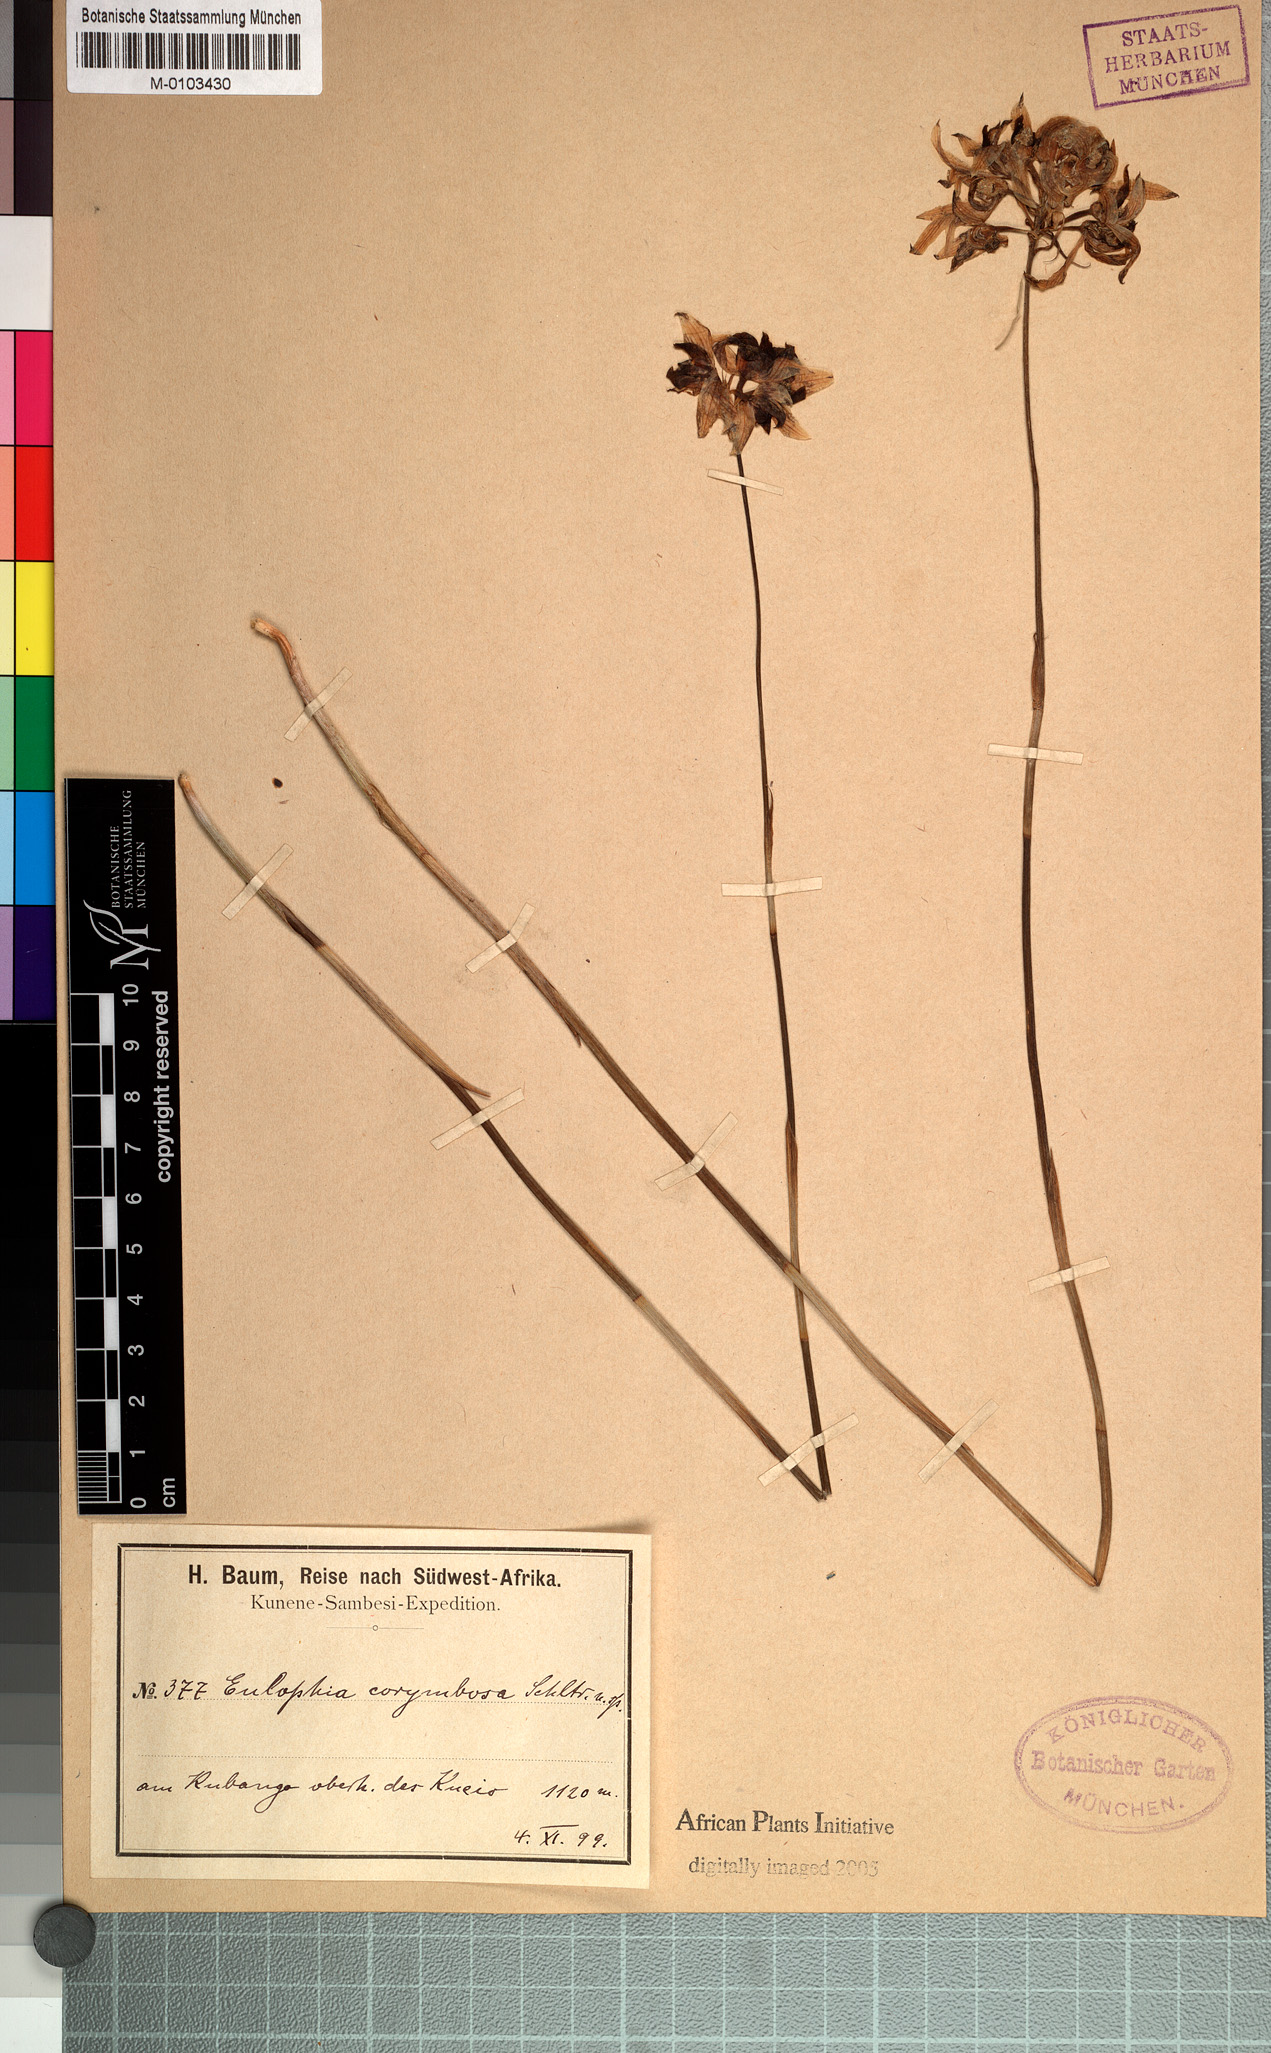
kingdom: Plantae
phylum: Tracheophyta
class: Liliopsida
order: Asparagales
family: Orchidaceae
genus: Eulophia
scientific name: Eulophia corymbosa
